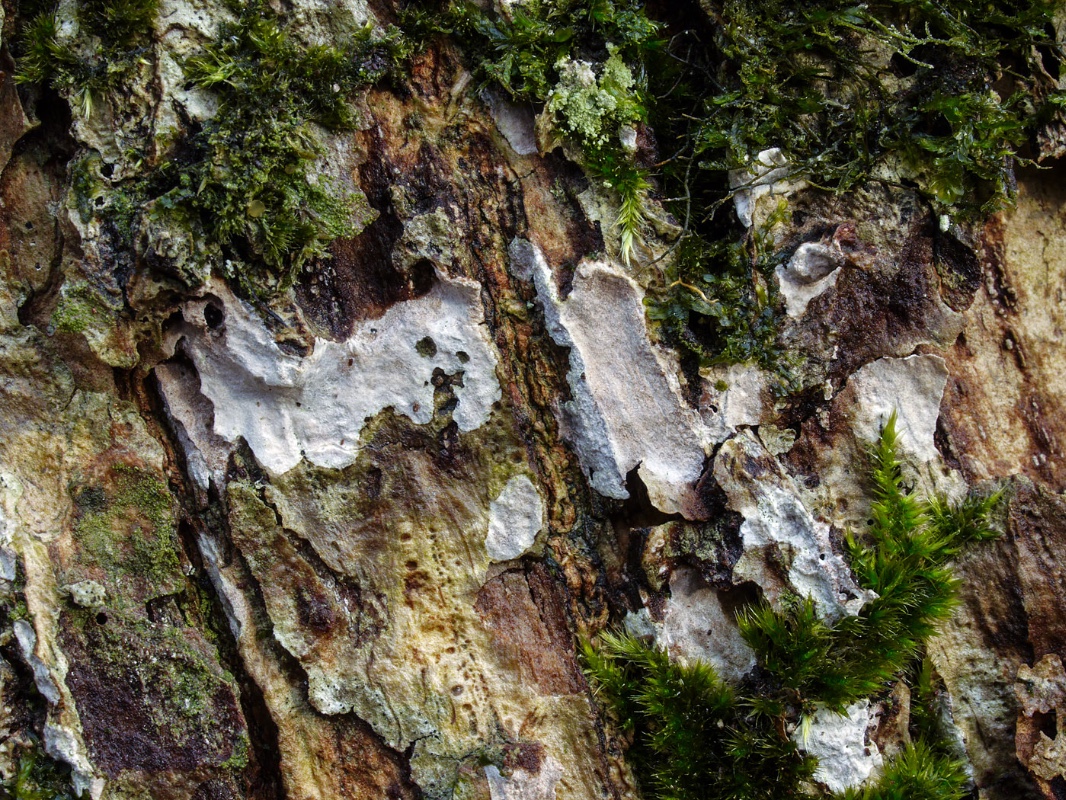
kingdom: Fungi
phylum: Basidiomycota
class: Agaricomycetes
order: Agaricales
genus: Dendrothele
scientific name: Dendrothele commixta
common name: ege-kalkplet
